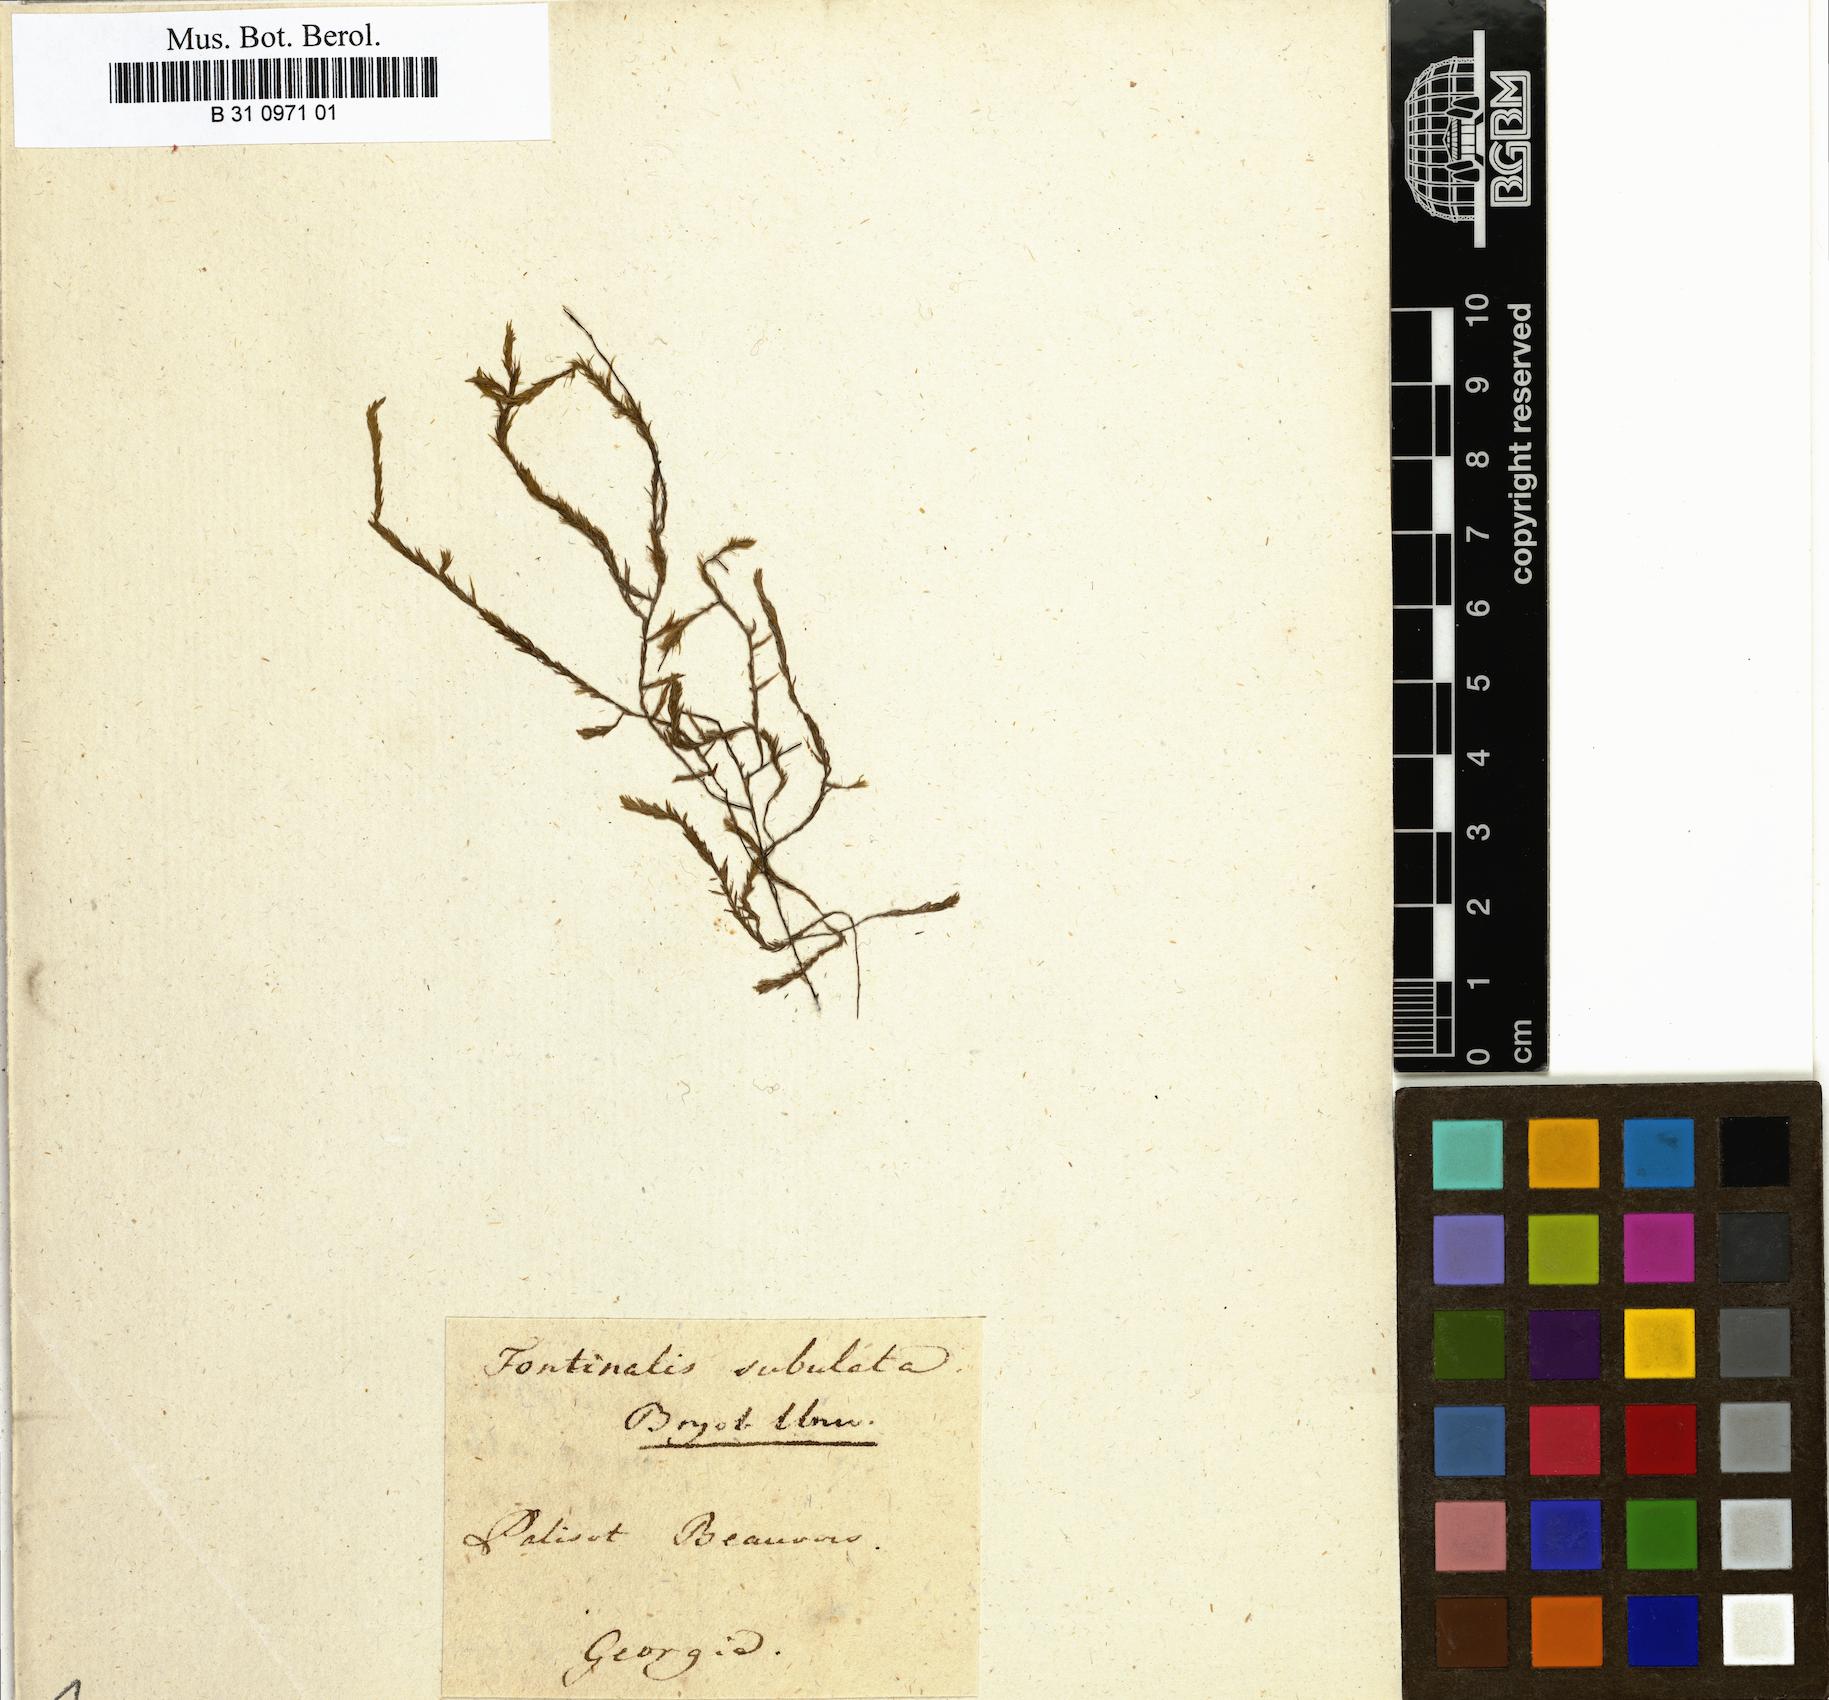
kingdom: Plantae
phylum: Bryophyta
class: Bryopsida
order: Hypnales
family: Fontinalaceae
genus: Brachelyma
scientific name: Brachelyma subulatum
